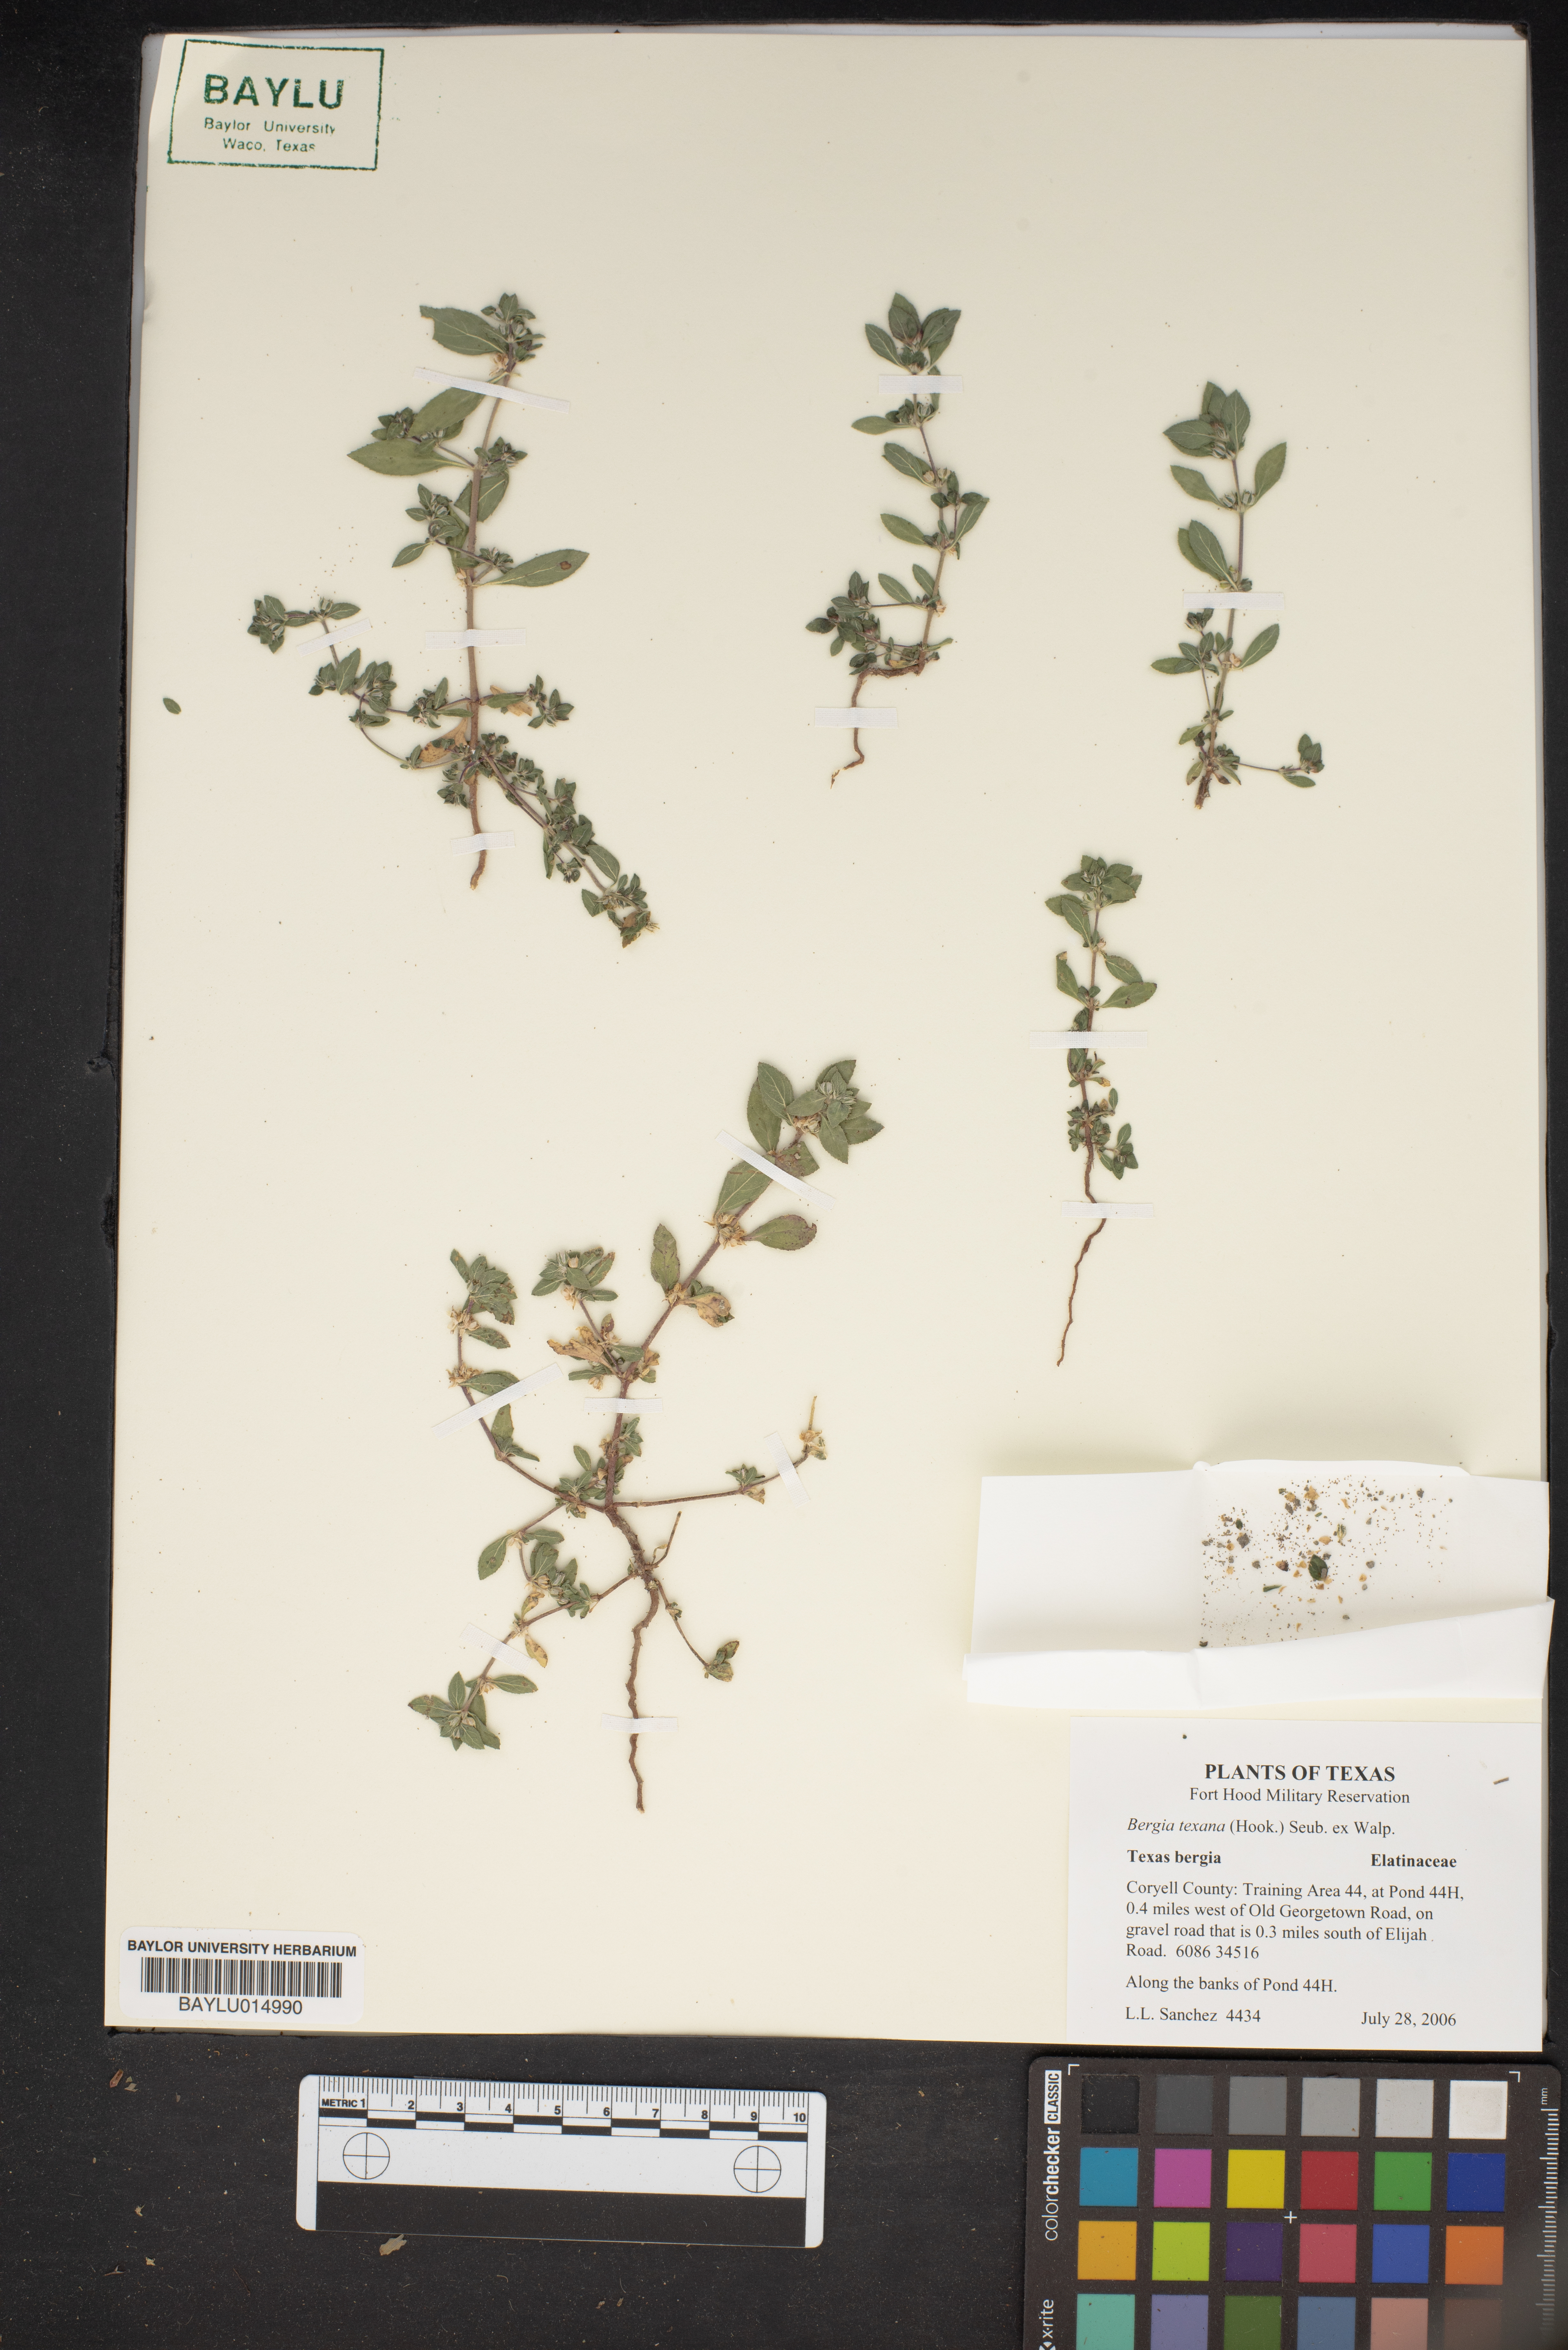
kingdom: Plantae
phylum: Tracheophyta
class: Magnoliopsida
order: Malpighiales
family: Elatinaceae
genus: Bergia
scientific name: Bergia texana
